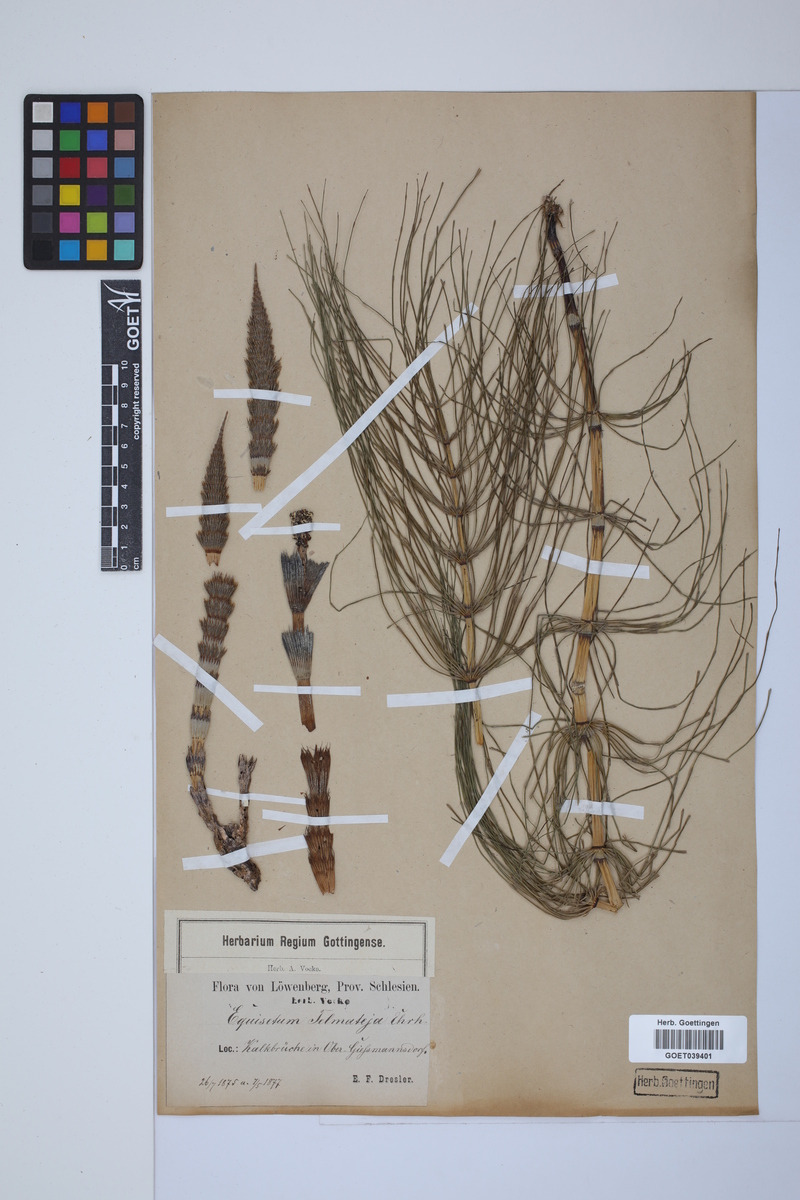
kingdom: Plantae
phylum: Tracheophyta
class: Polypodiopsida
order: Equisetales
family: Equisetaceae
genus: Equisetum
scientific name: Equisetum telmateia
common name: Great horsetail
